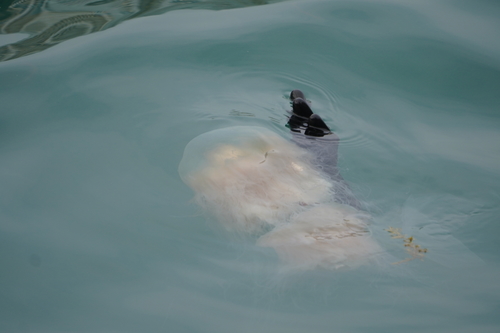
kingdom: Animalia
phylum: Cnidaria
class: Scyphozoa
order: Semaeostomeae
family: Cyaneidae
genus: Cyanea
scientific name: Cyanea nozakii
